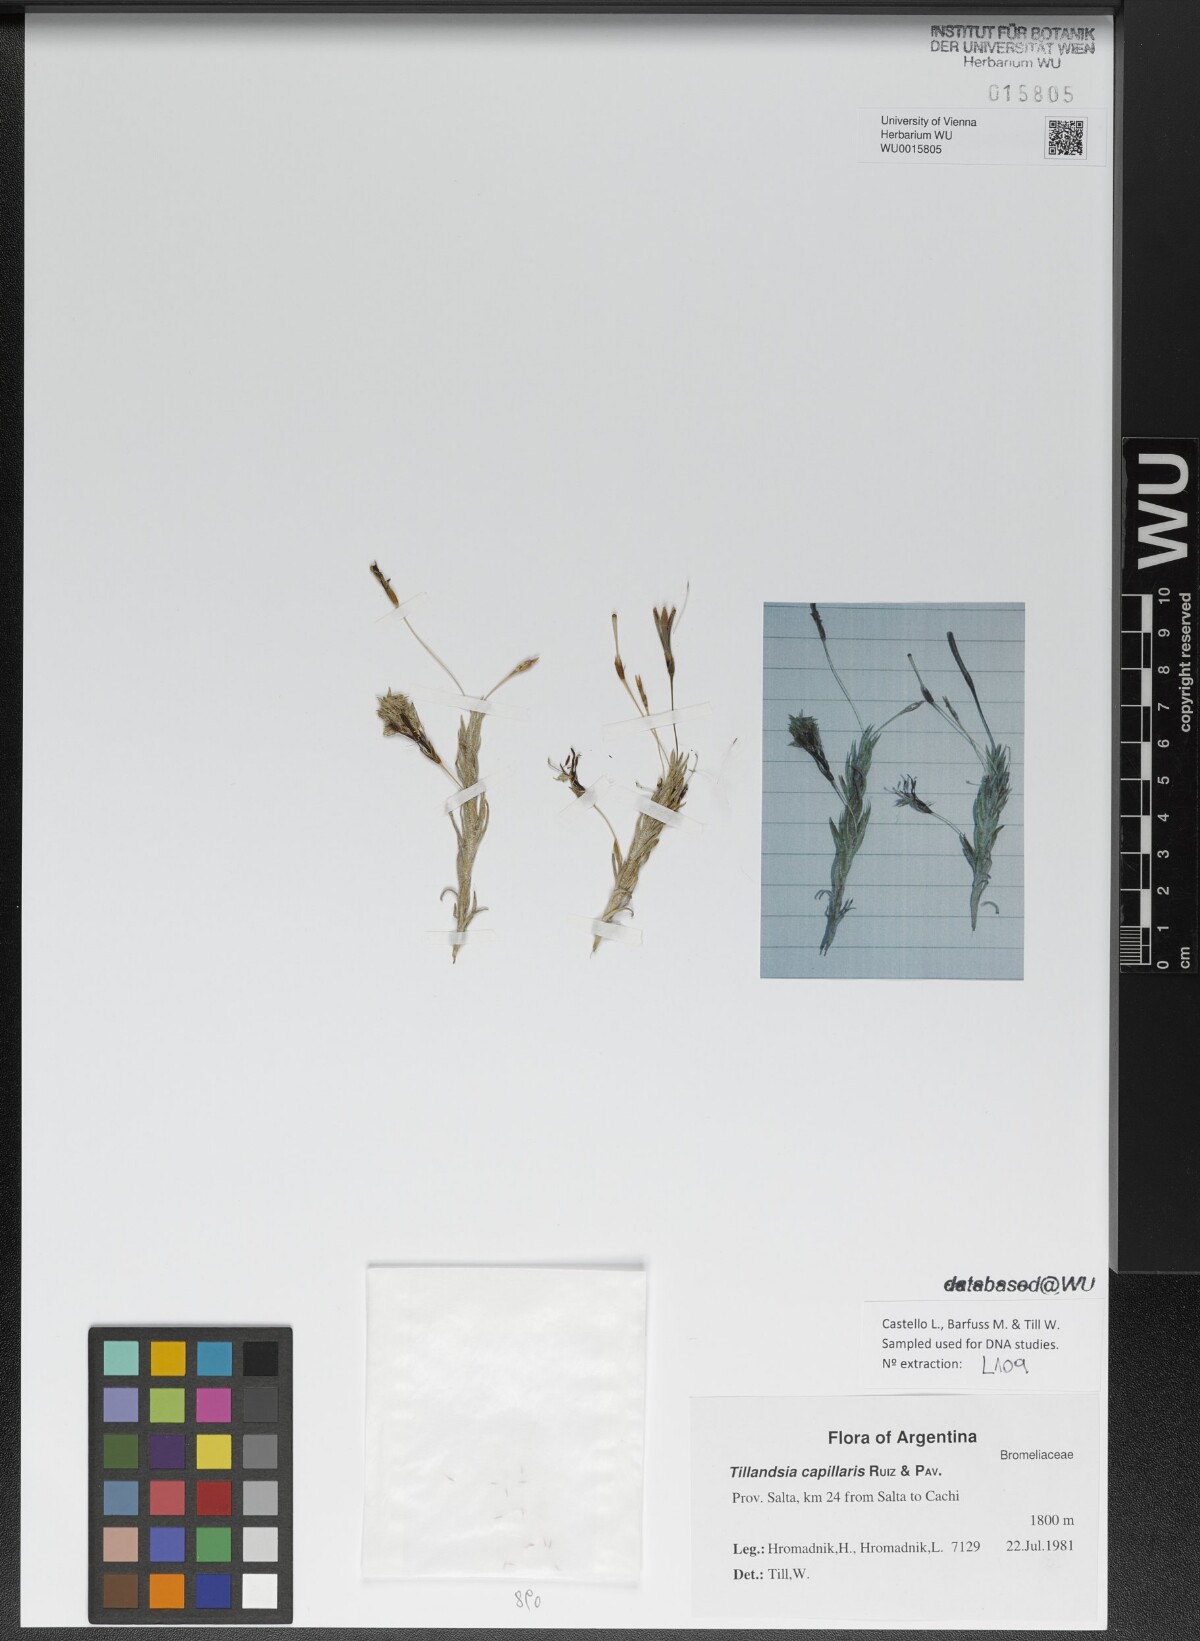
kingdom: Plantae
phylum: Tracheophyta
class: Liliopsida
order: Poales
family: Bromeliaceae
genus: Tillandsia
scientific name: Tillandsia capillaris
